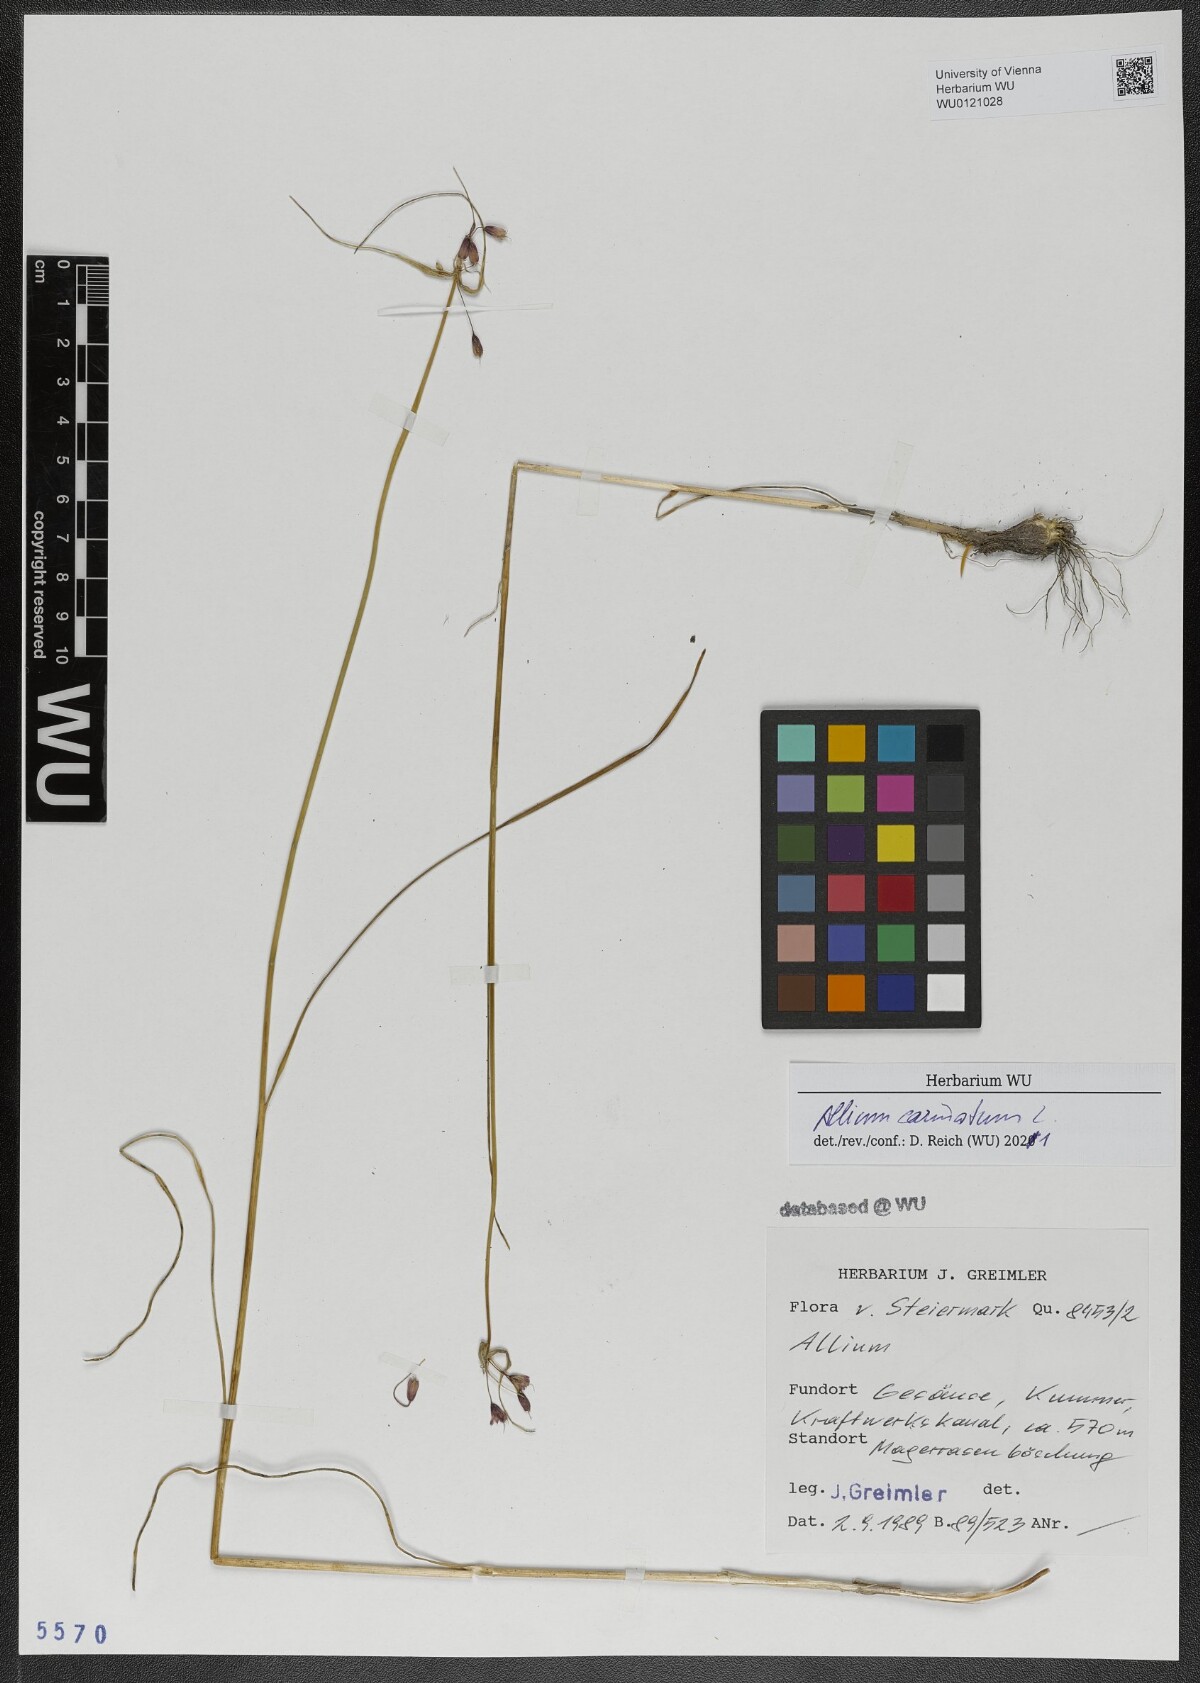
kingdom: Plantae
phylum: Tracheophyta
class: Liliopsida
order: Asparagales
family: Amaryllidaceae
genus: Allium
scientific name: Allium carinatum
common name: Keeled garlic
